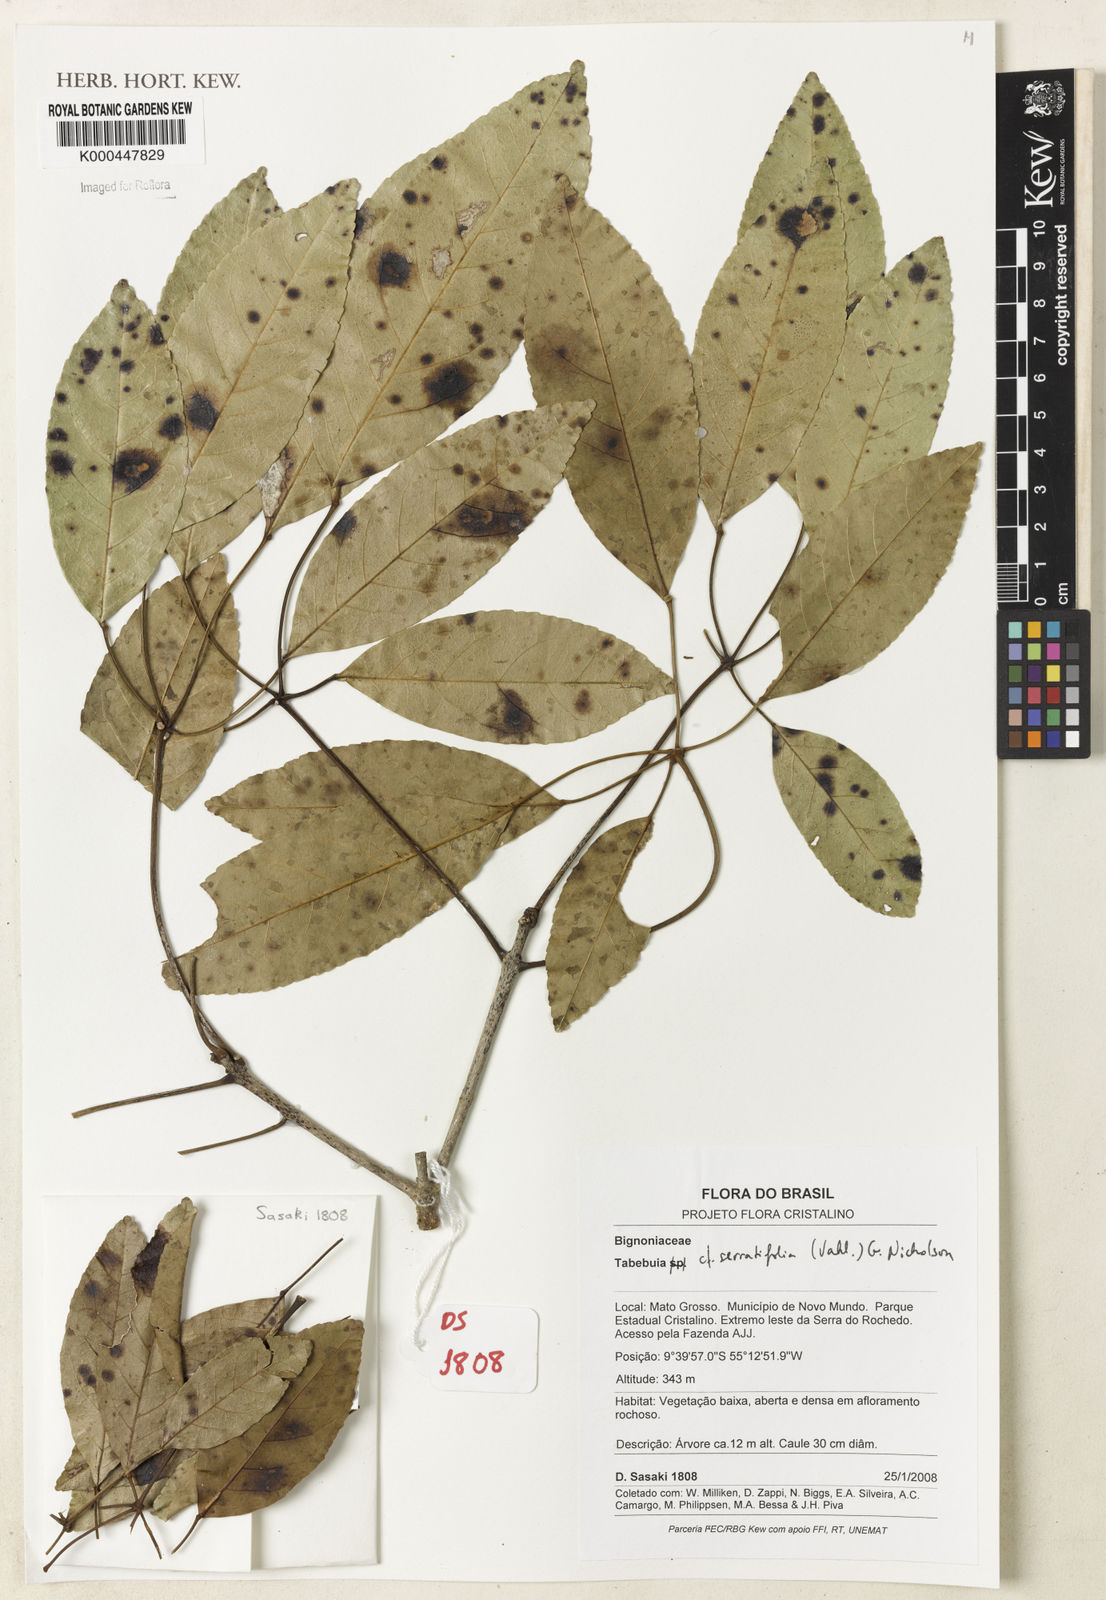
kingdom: Plantae
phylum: Tracheophyta
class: Magnoliopsida
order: Lamiales
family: Bignoniaceae
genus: Handroanthus
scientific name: Handroanthus serratifolius
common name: Yellow ipe
